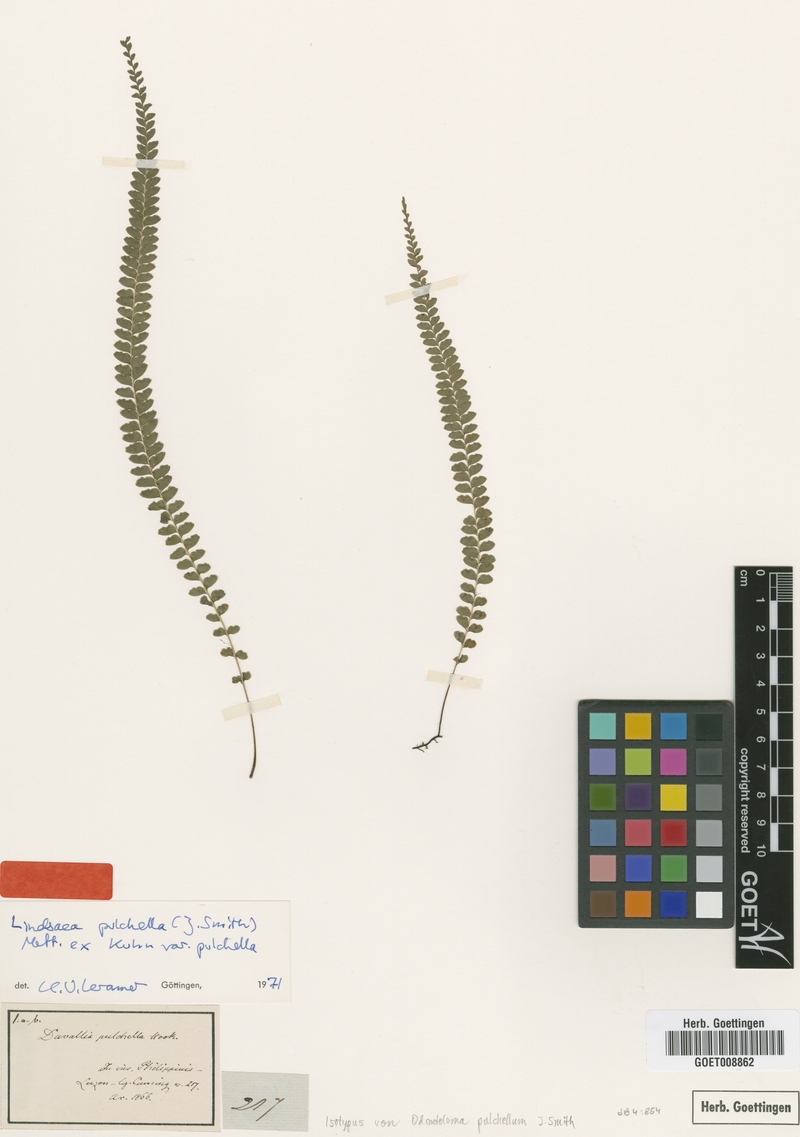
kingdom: Plantae
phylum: Tracheophyta
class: Polypodiopsida
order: Polypodiales
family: Lindsaeaceae
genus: Lindsaea
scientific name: Lindsaea pulchella
